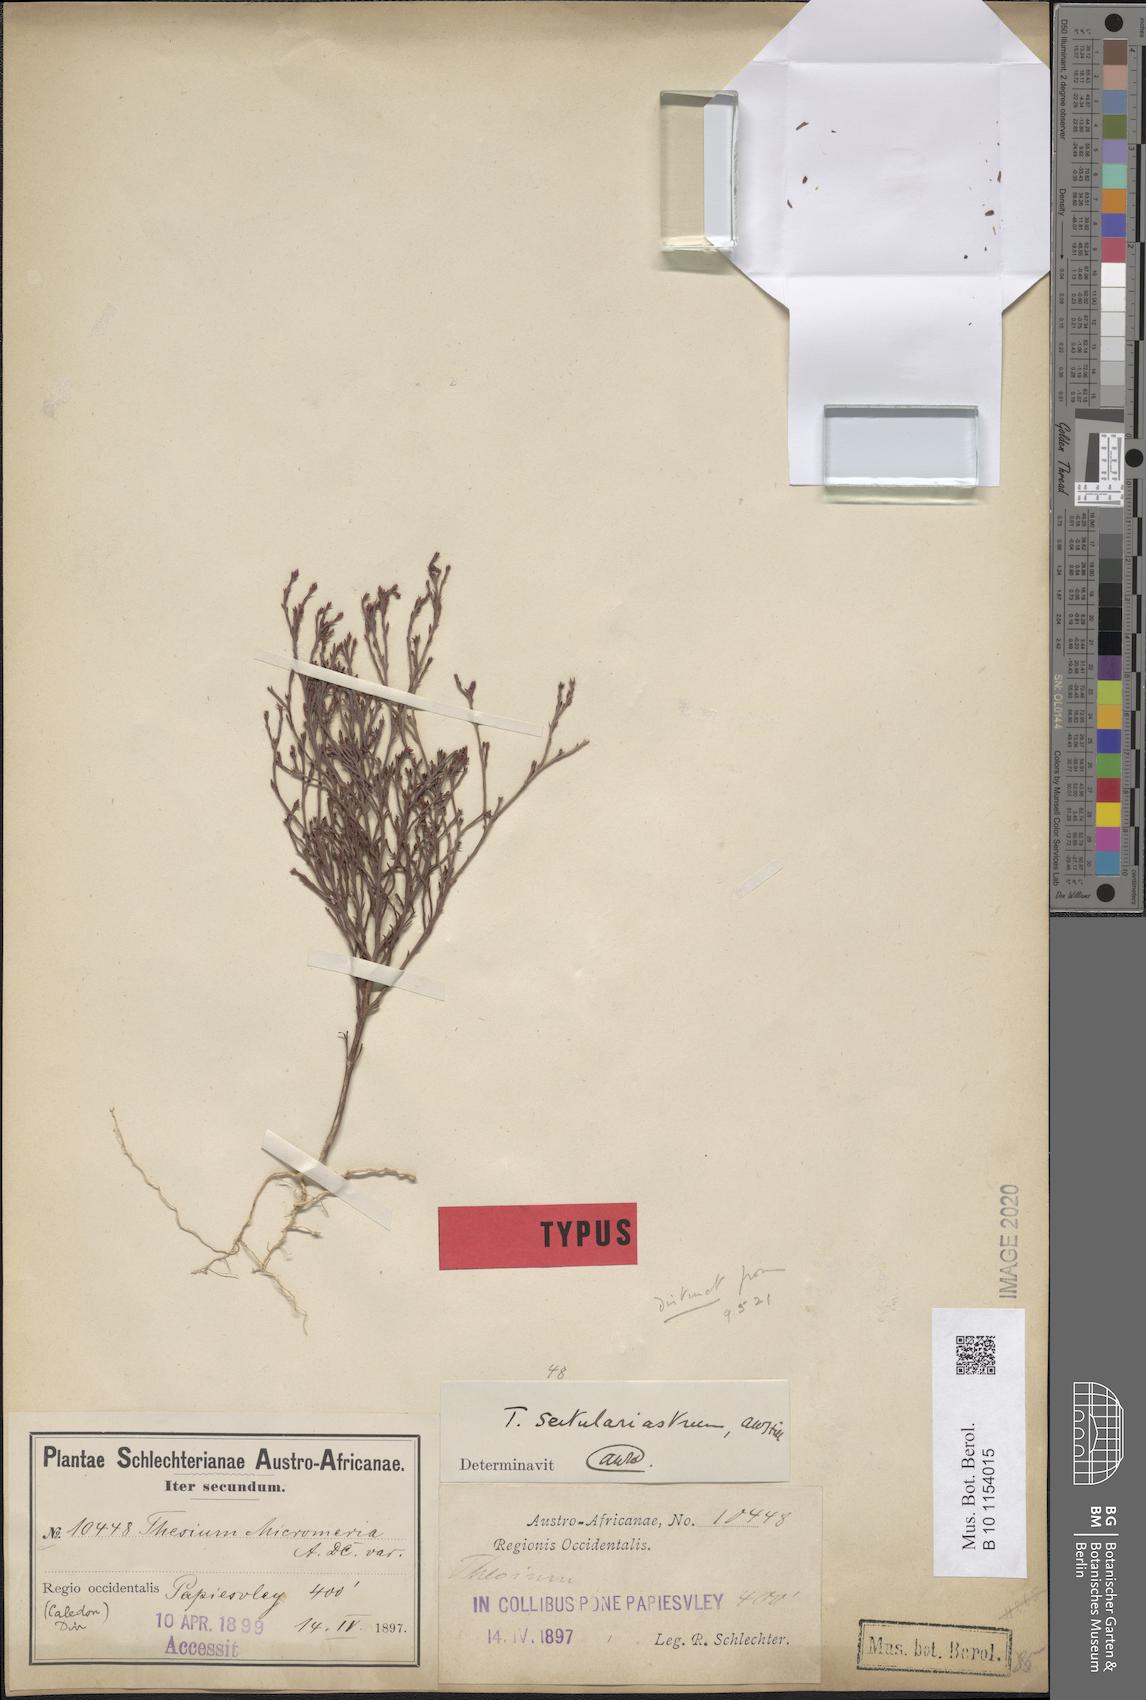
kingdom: Plantae
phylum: Tracheophyta
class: Magnoliopsida
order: Santalales
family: Thesiaceae
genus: Thesium
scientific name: Thesium sertulariastrum
